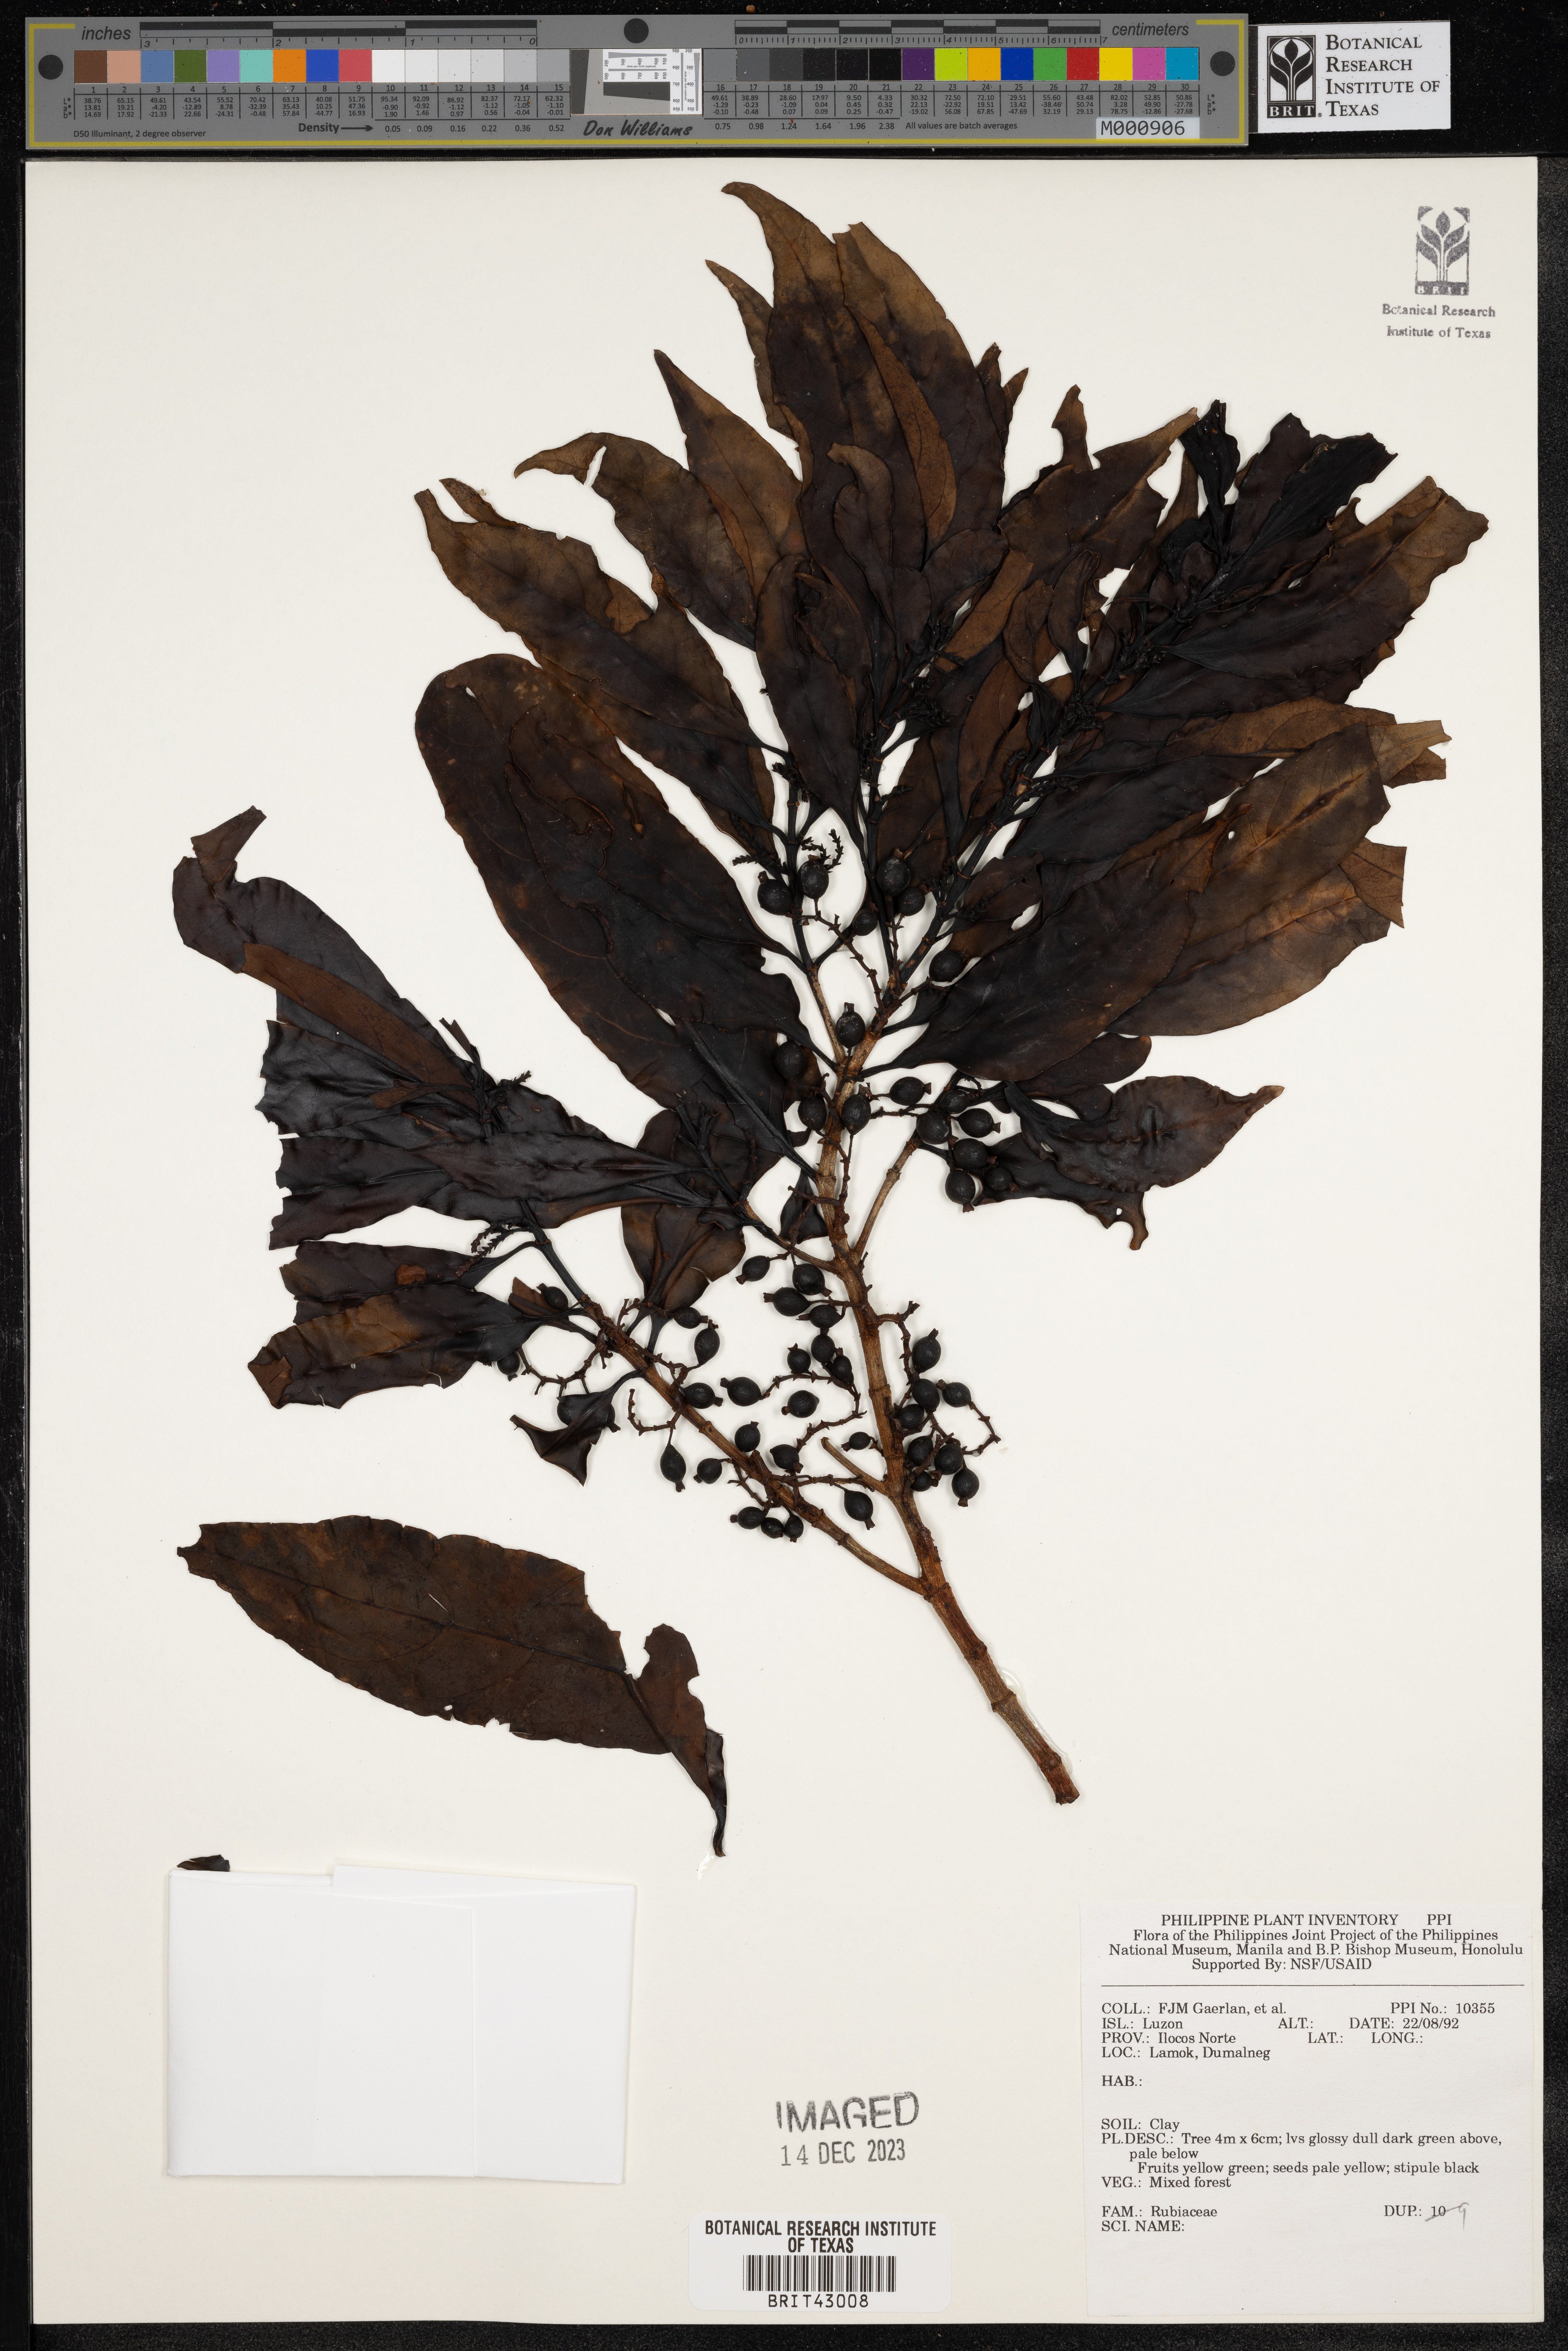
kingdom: Plantae
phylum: Tracheophyta
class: Magnoliopsida
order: Gentianales
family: Rubiaceae
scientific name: Rubiaceae
